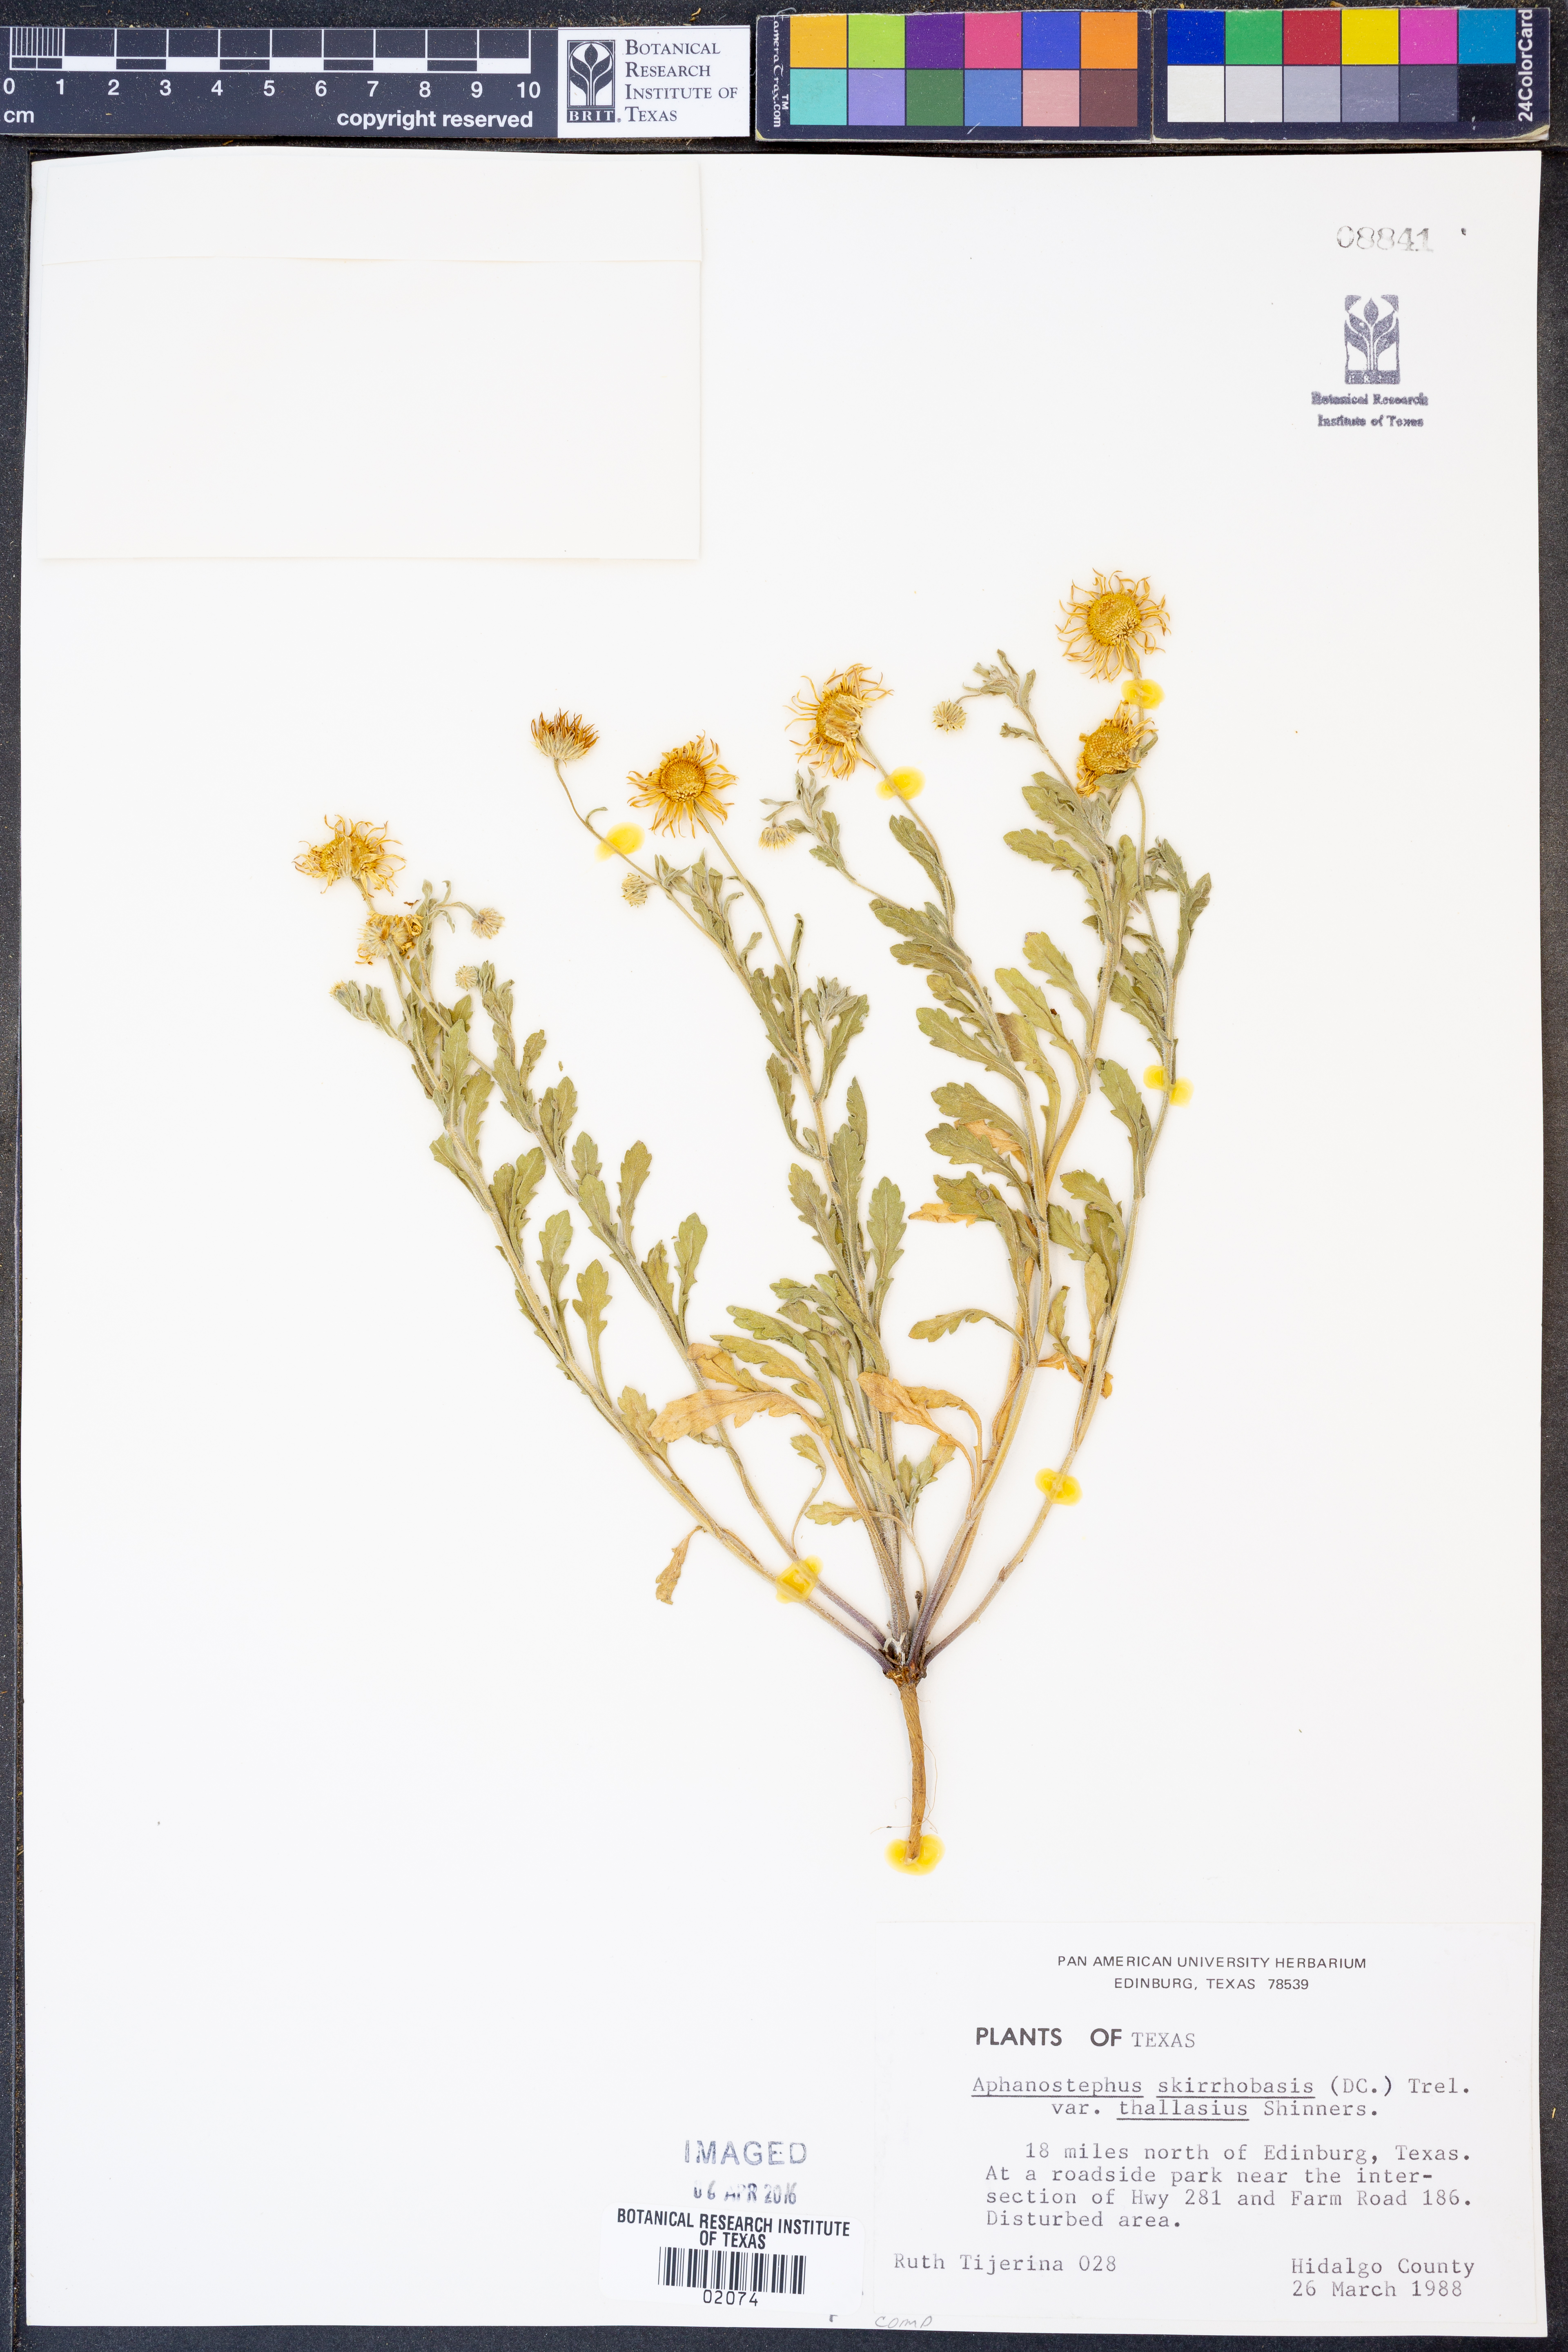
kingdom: Plantae
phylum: Tracheophyta
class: Magnoliopsida
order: Asterales
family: Asteraceae
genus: Aphanostephus
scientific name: Aphanostephus skirrhobasis
